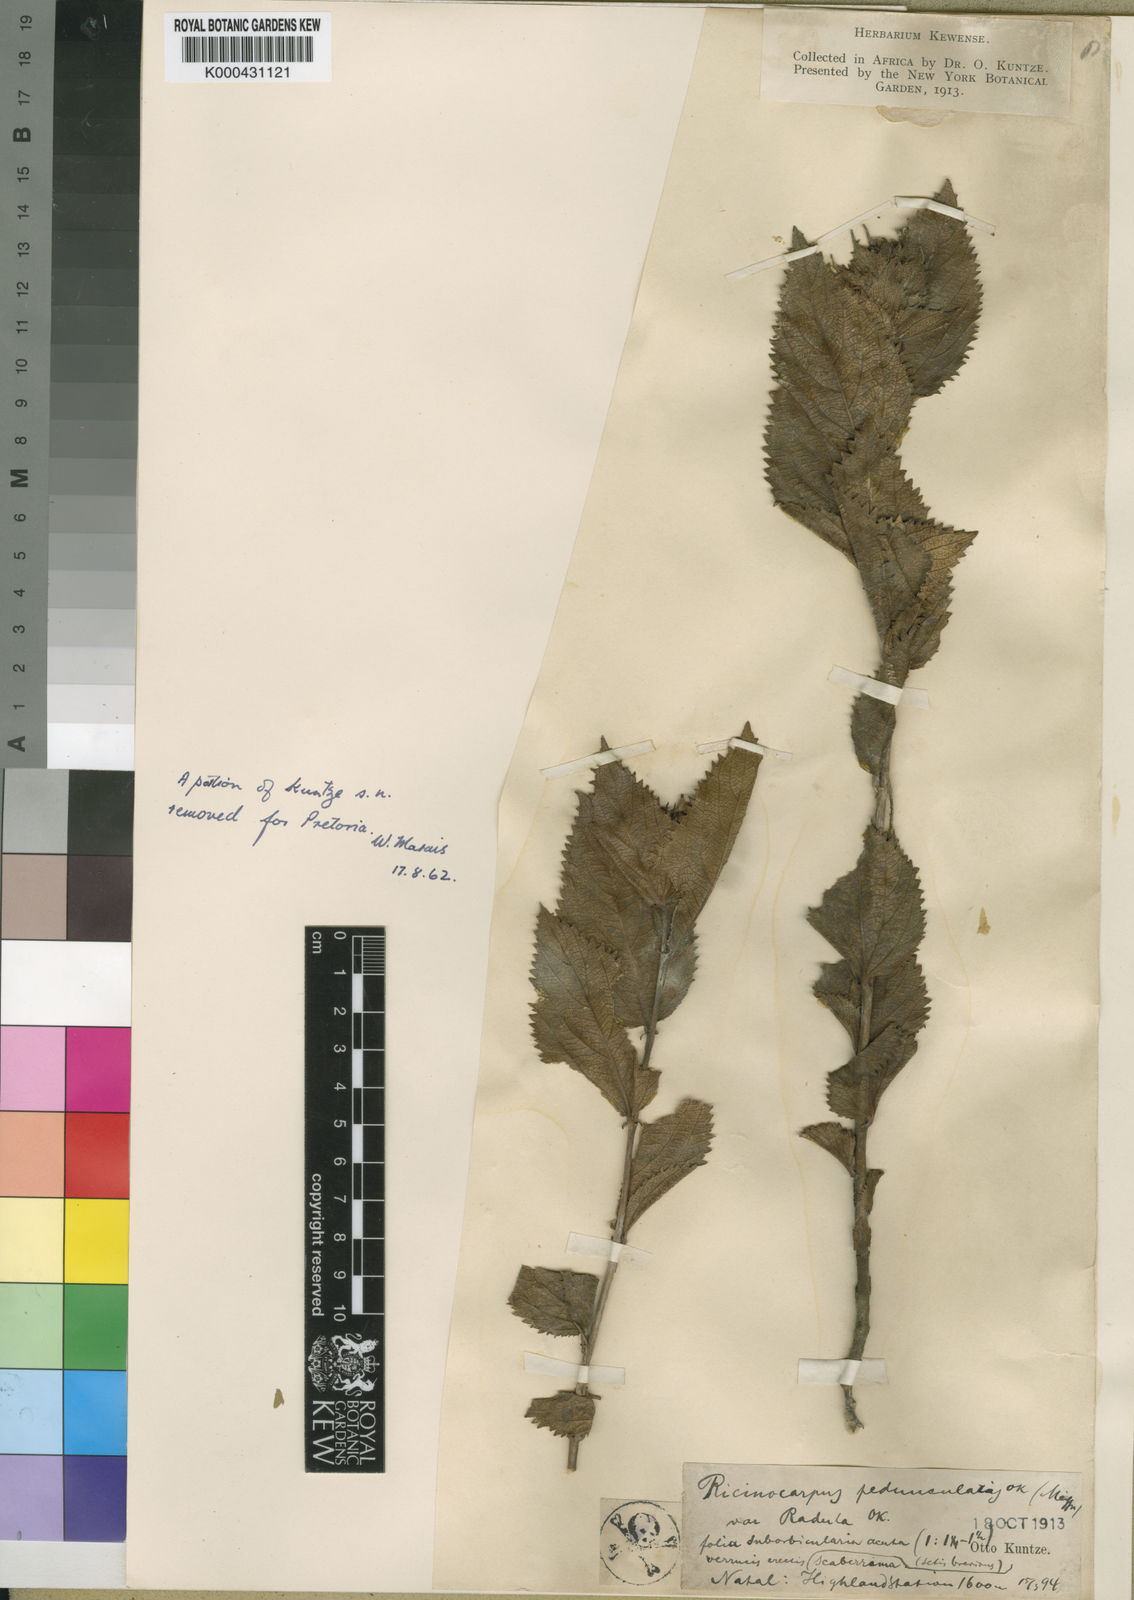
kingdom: Plantae
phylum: Tracheophyta
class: Magnoliopsida
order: Malpighiales
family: Euphorbiaceae
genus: Acalypha
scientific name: Acalypha wilmsii
